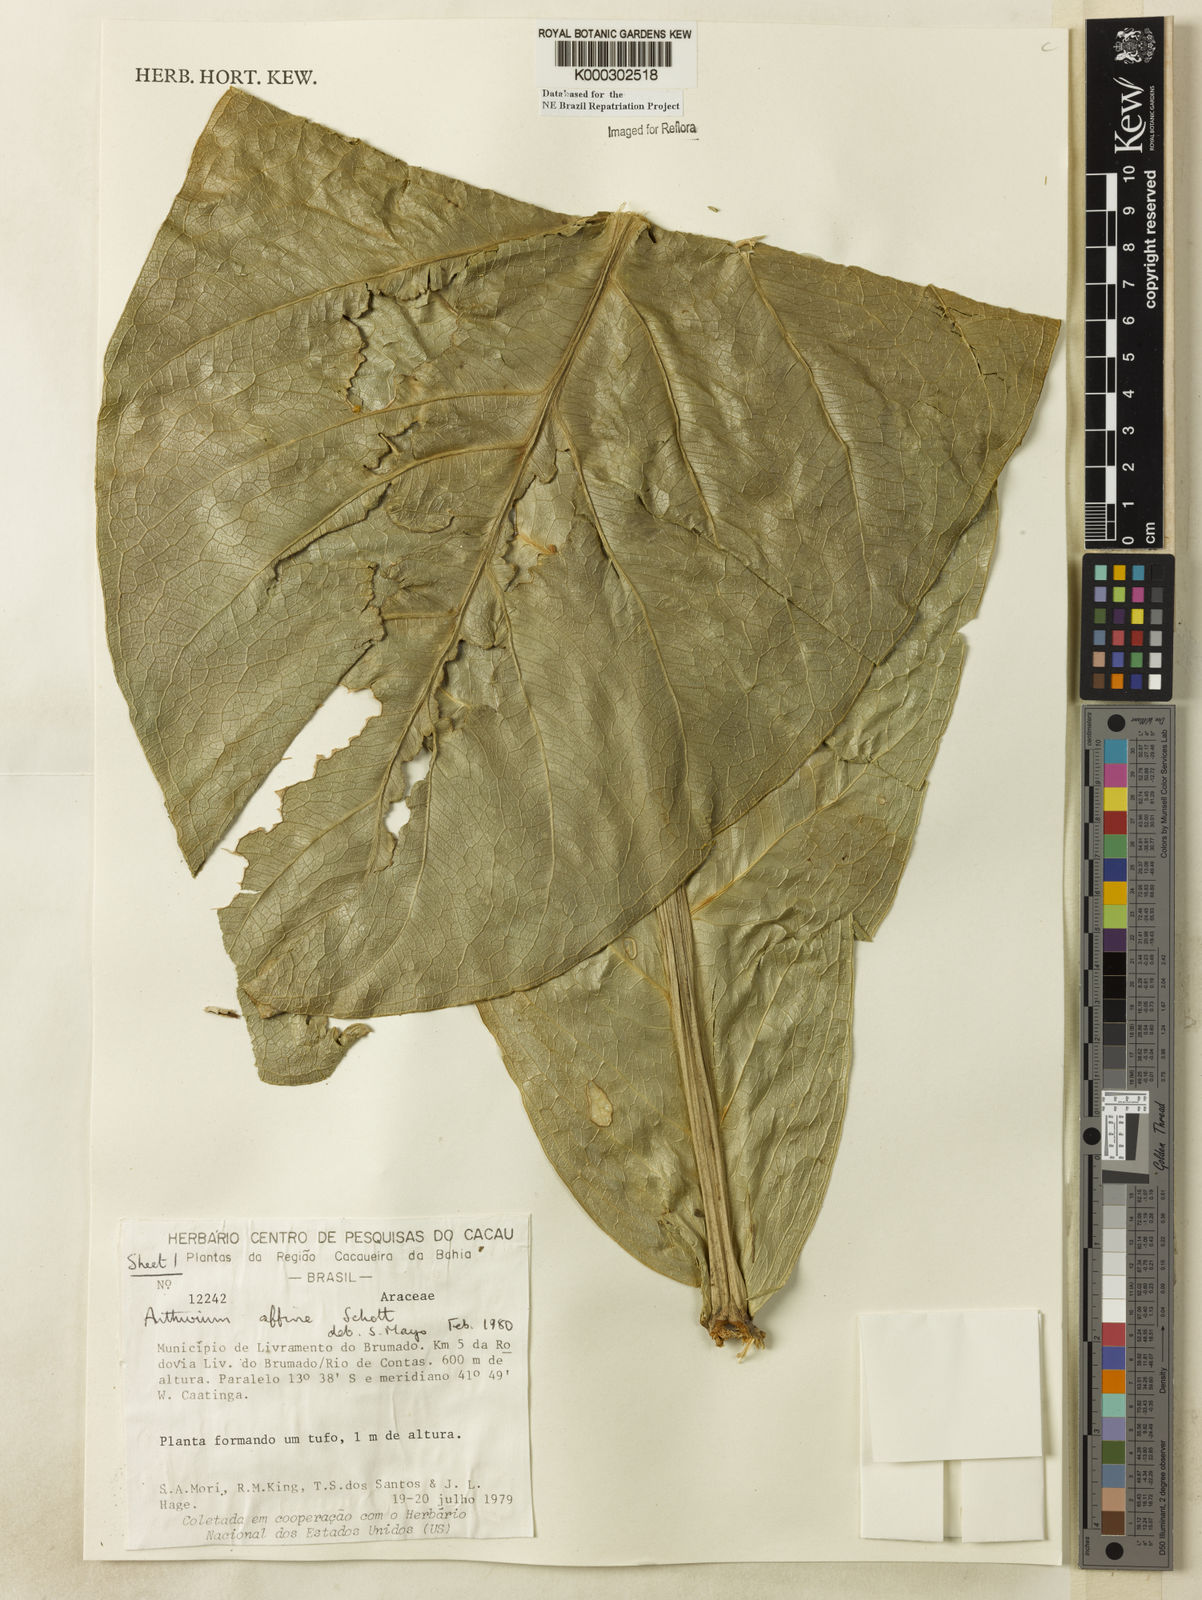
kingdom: Plantae
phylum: Tracheophyta
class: Liliopsida
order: Alismatales
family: Araceae
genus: Anthurium
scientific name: Anthurium affine
